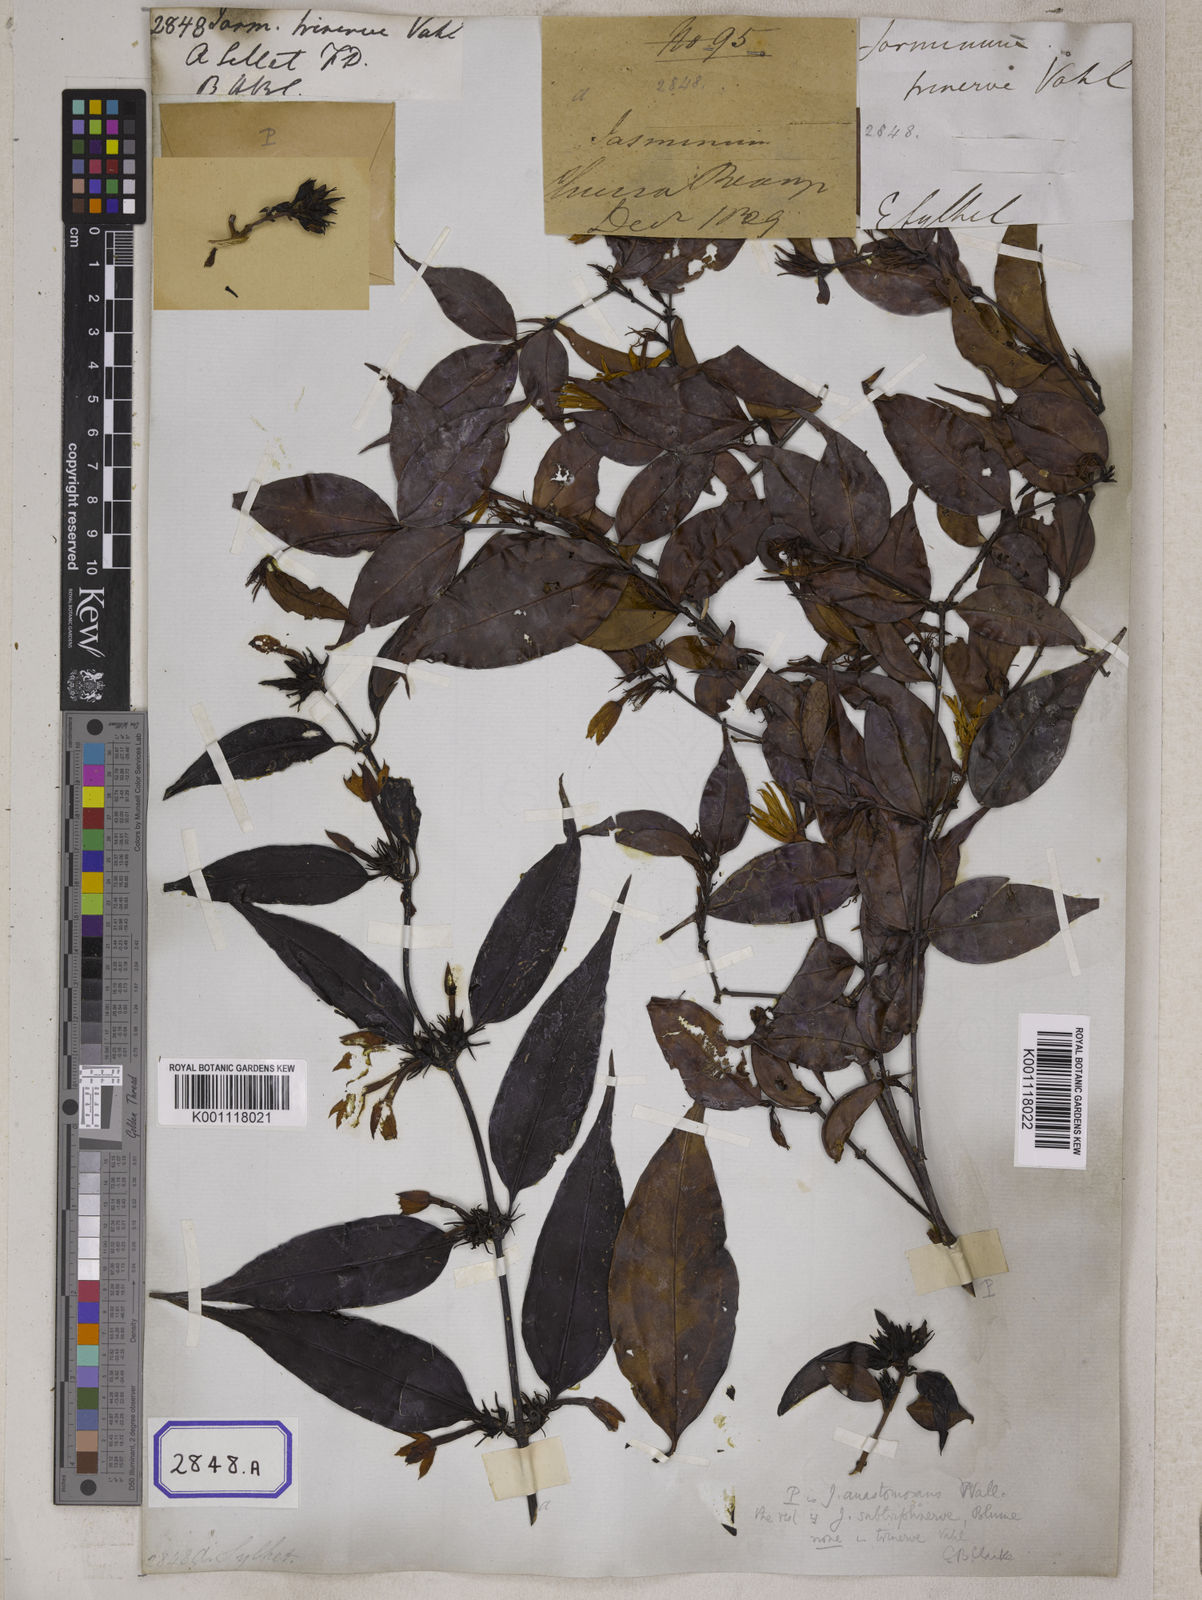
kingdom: Plantae
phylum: Tracheophyta
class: Magnoliopsida
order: Lamiales
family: Oleaceae
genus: Jasminum
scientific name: Jasminum acuminatum
